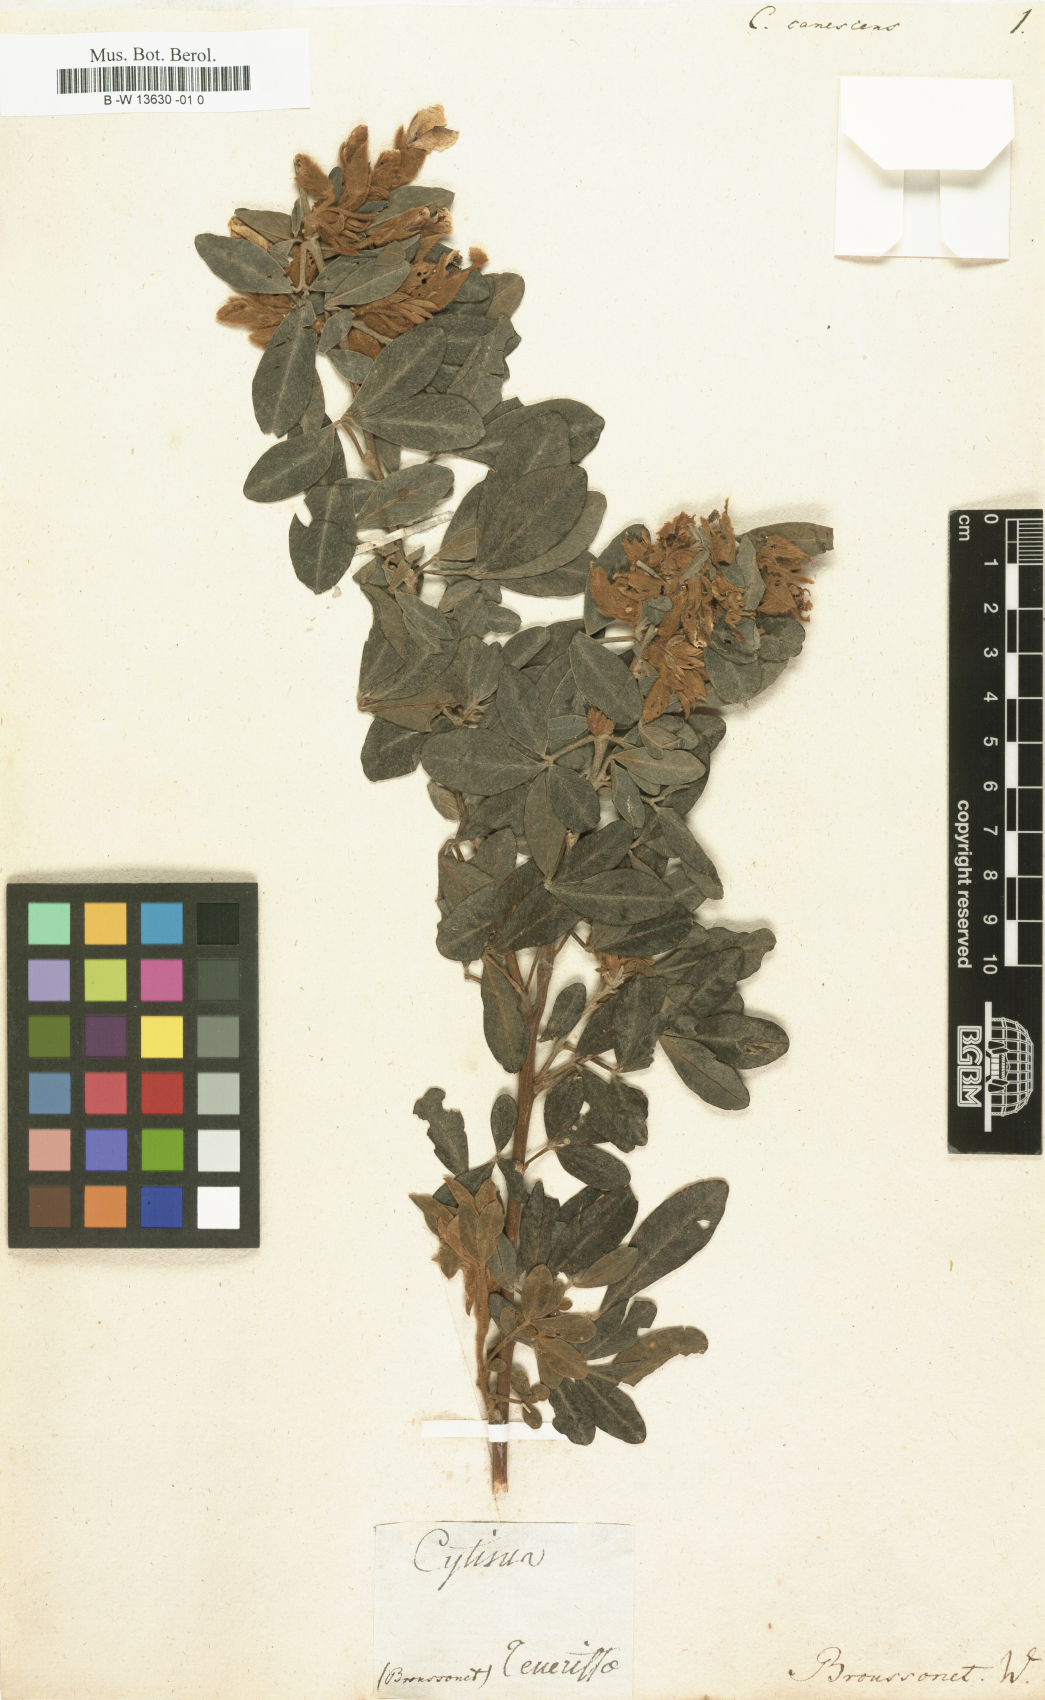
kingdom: Plantae
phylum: Tracheophyta
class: Magnoliopsida
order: Fabales
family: Fabaceae
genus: Cytisus
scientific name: Cytisus canescens
